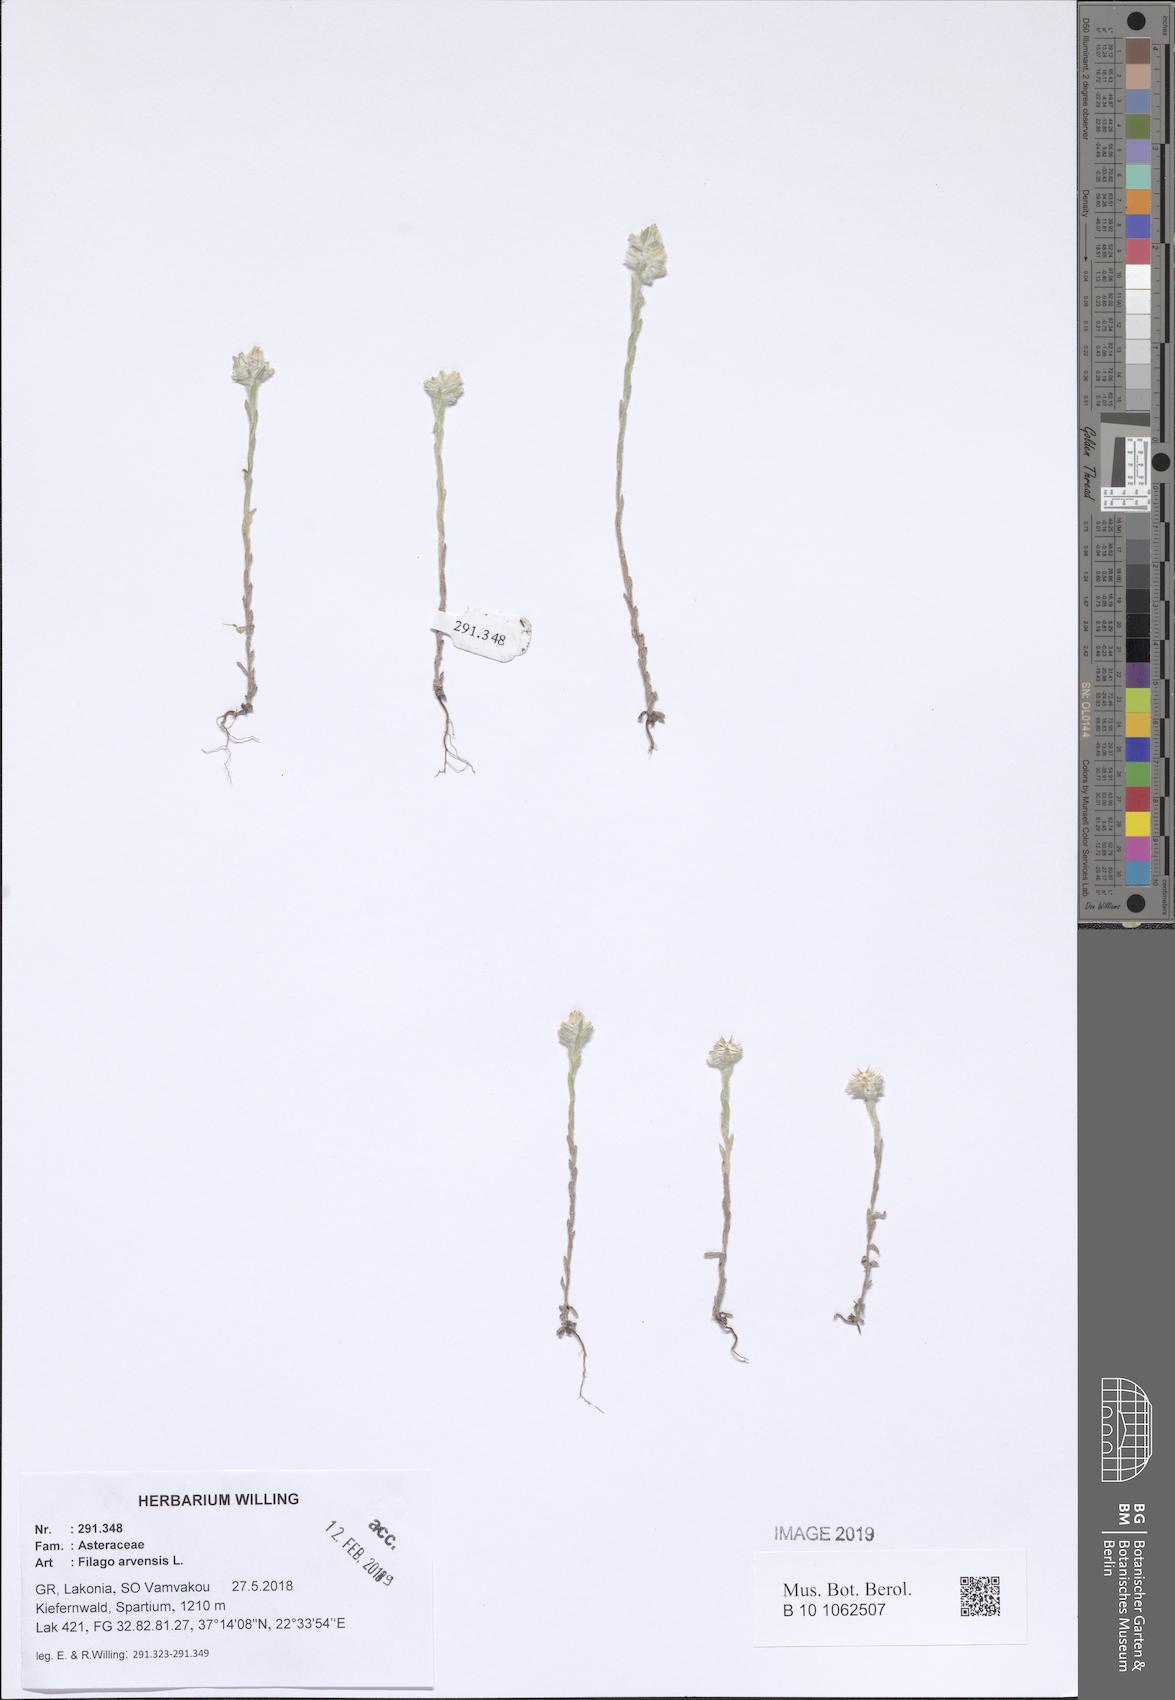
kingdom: Plantae
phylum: Tracheophyta
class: Magnoliopsida
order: Asterales
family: Asteraceae
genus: Filago
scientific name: Filago arvensis
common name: Field cudweed
